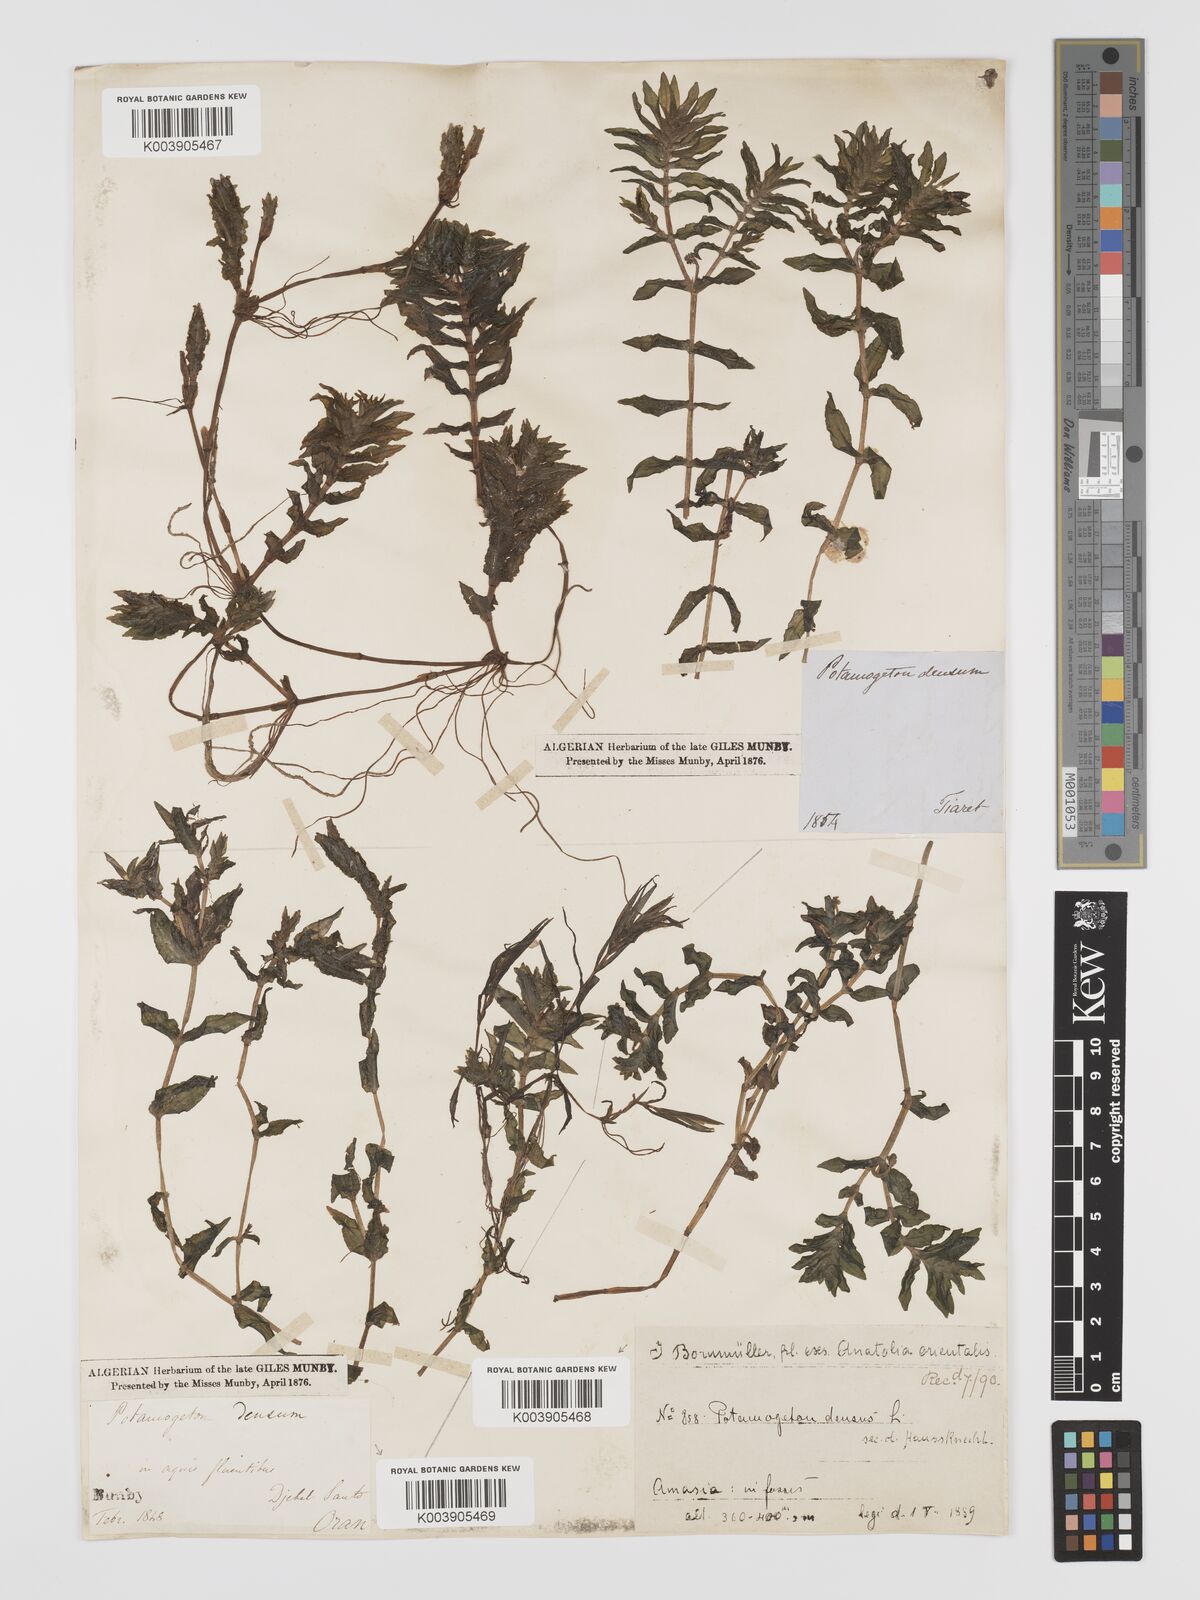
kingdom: Plantae
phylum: Tracheophyta
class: Liliopsida
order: Alismatales
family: Potamogetonaceae
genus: Groenlandia
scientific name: Groenlandia densa
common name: Opposite-leaved pondweed
